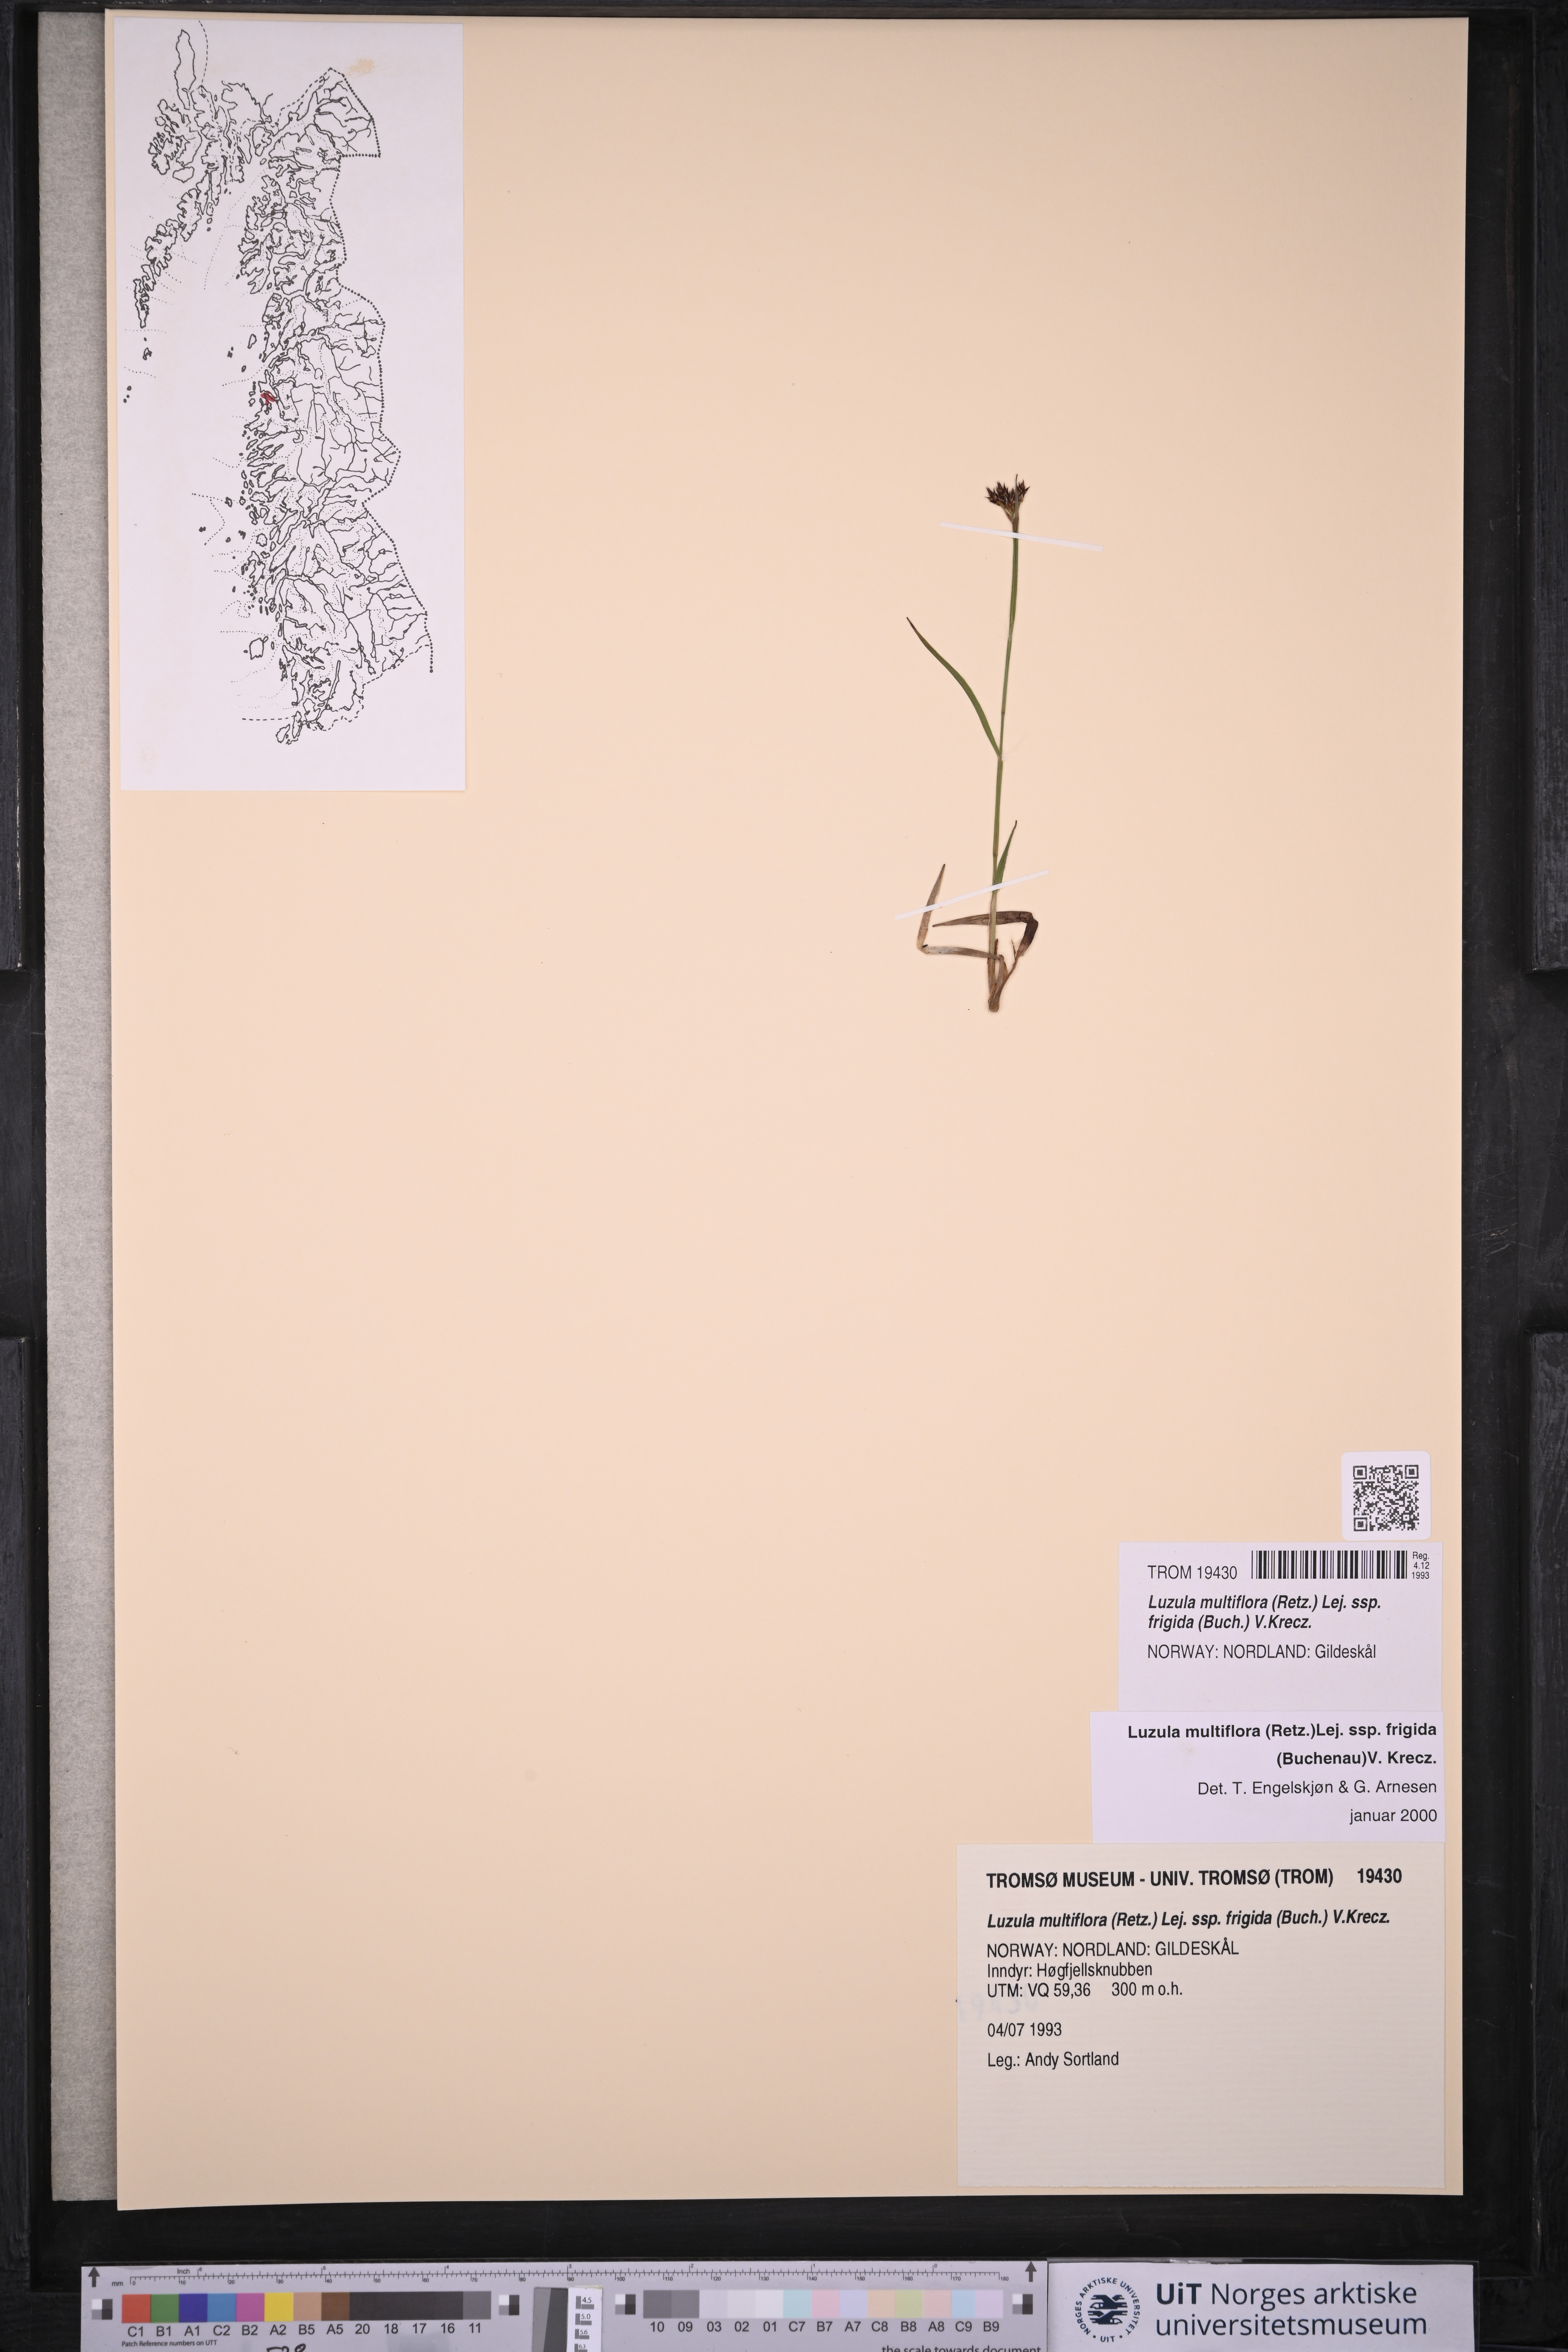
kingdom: Plantae
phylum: Tracheophyta
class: Liliopsida
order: Poales
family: Juncaceae
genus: Luzula
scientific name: Luzula multiflora
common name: Heath wood-rush
